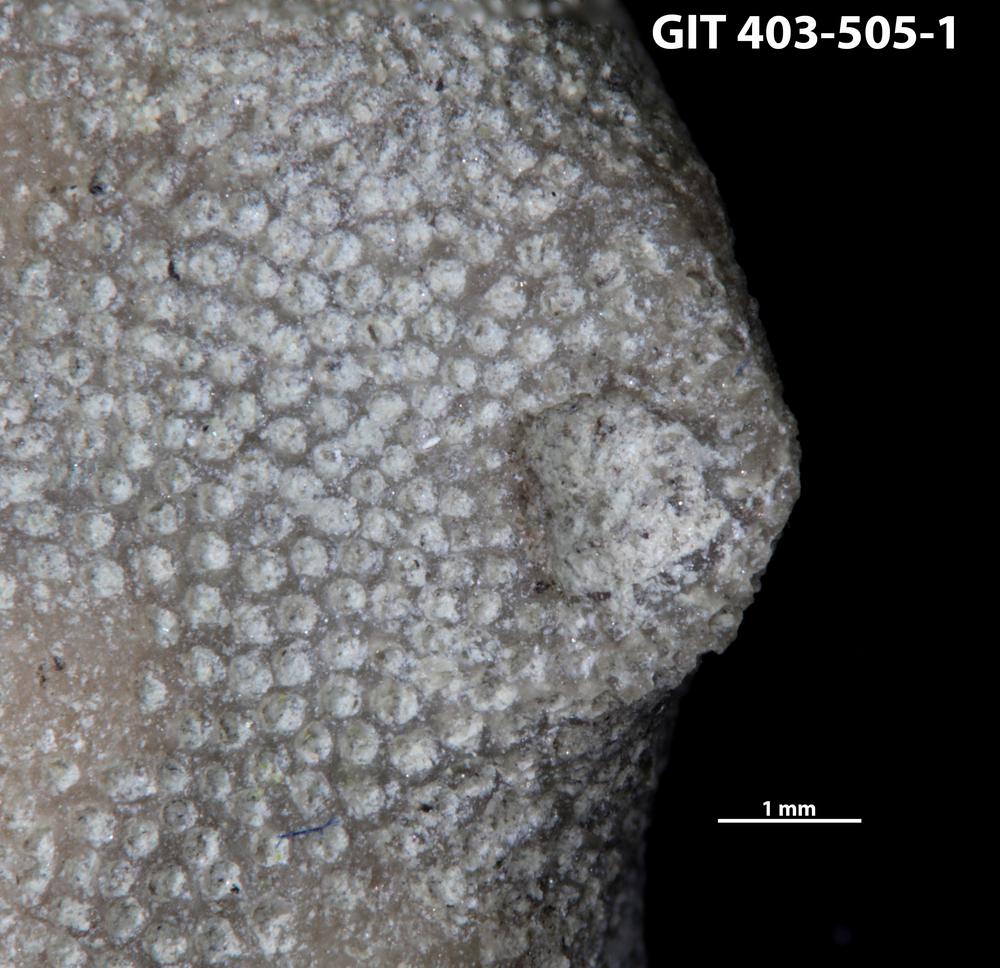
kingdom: Animalia
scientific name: Animalia
